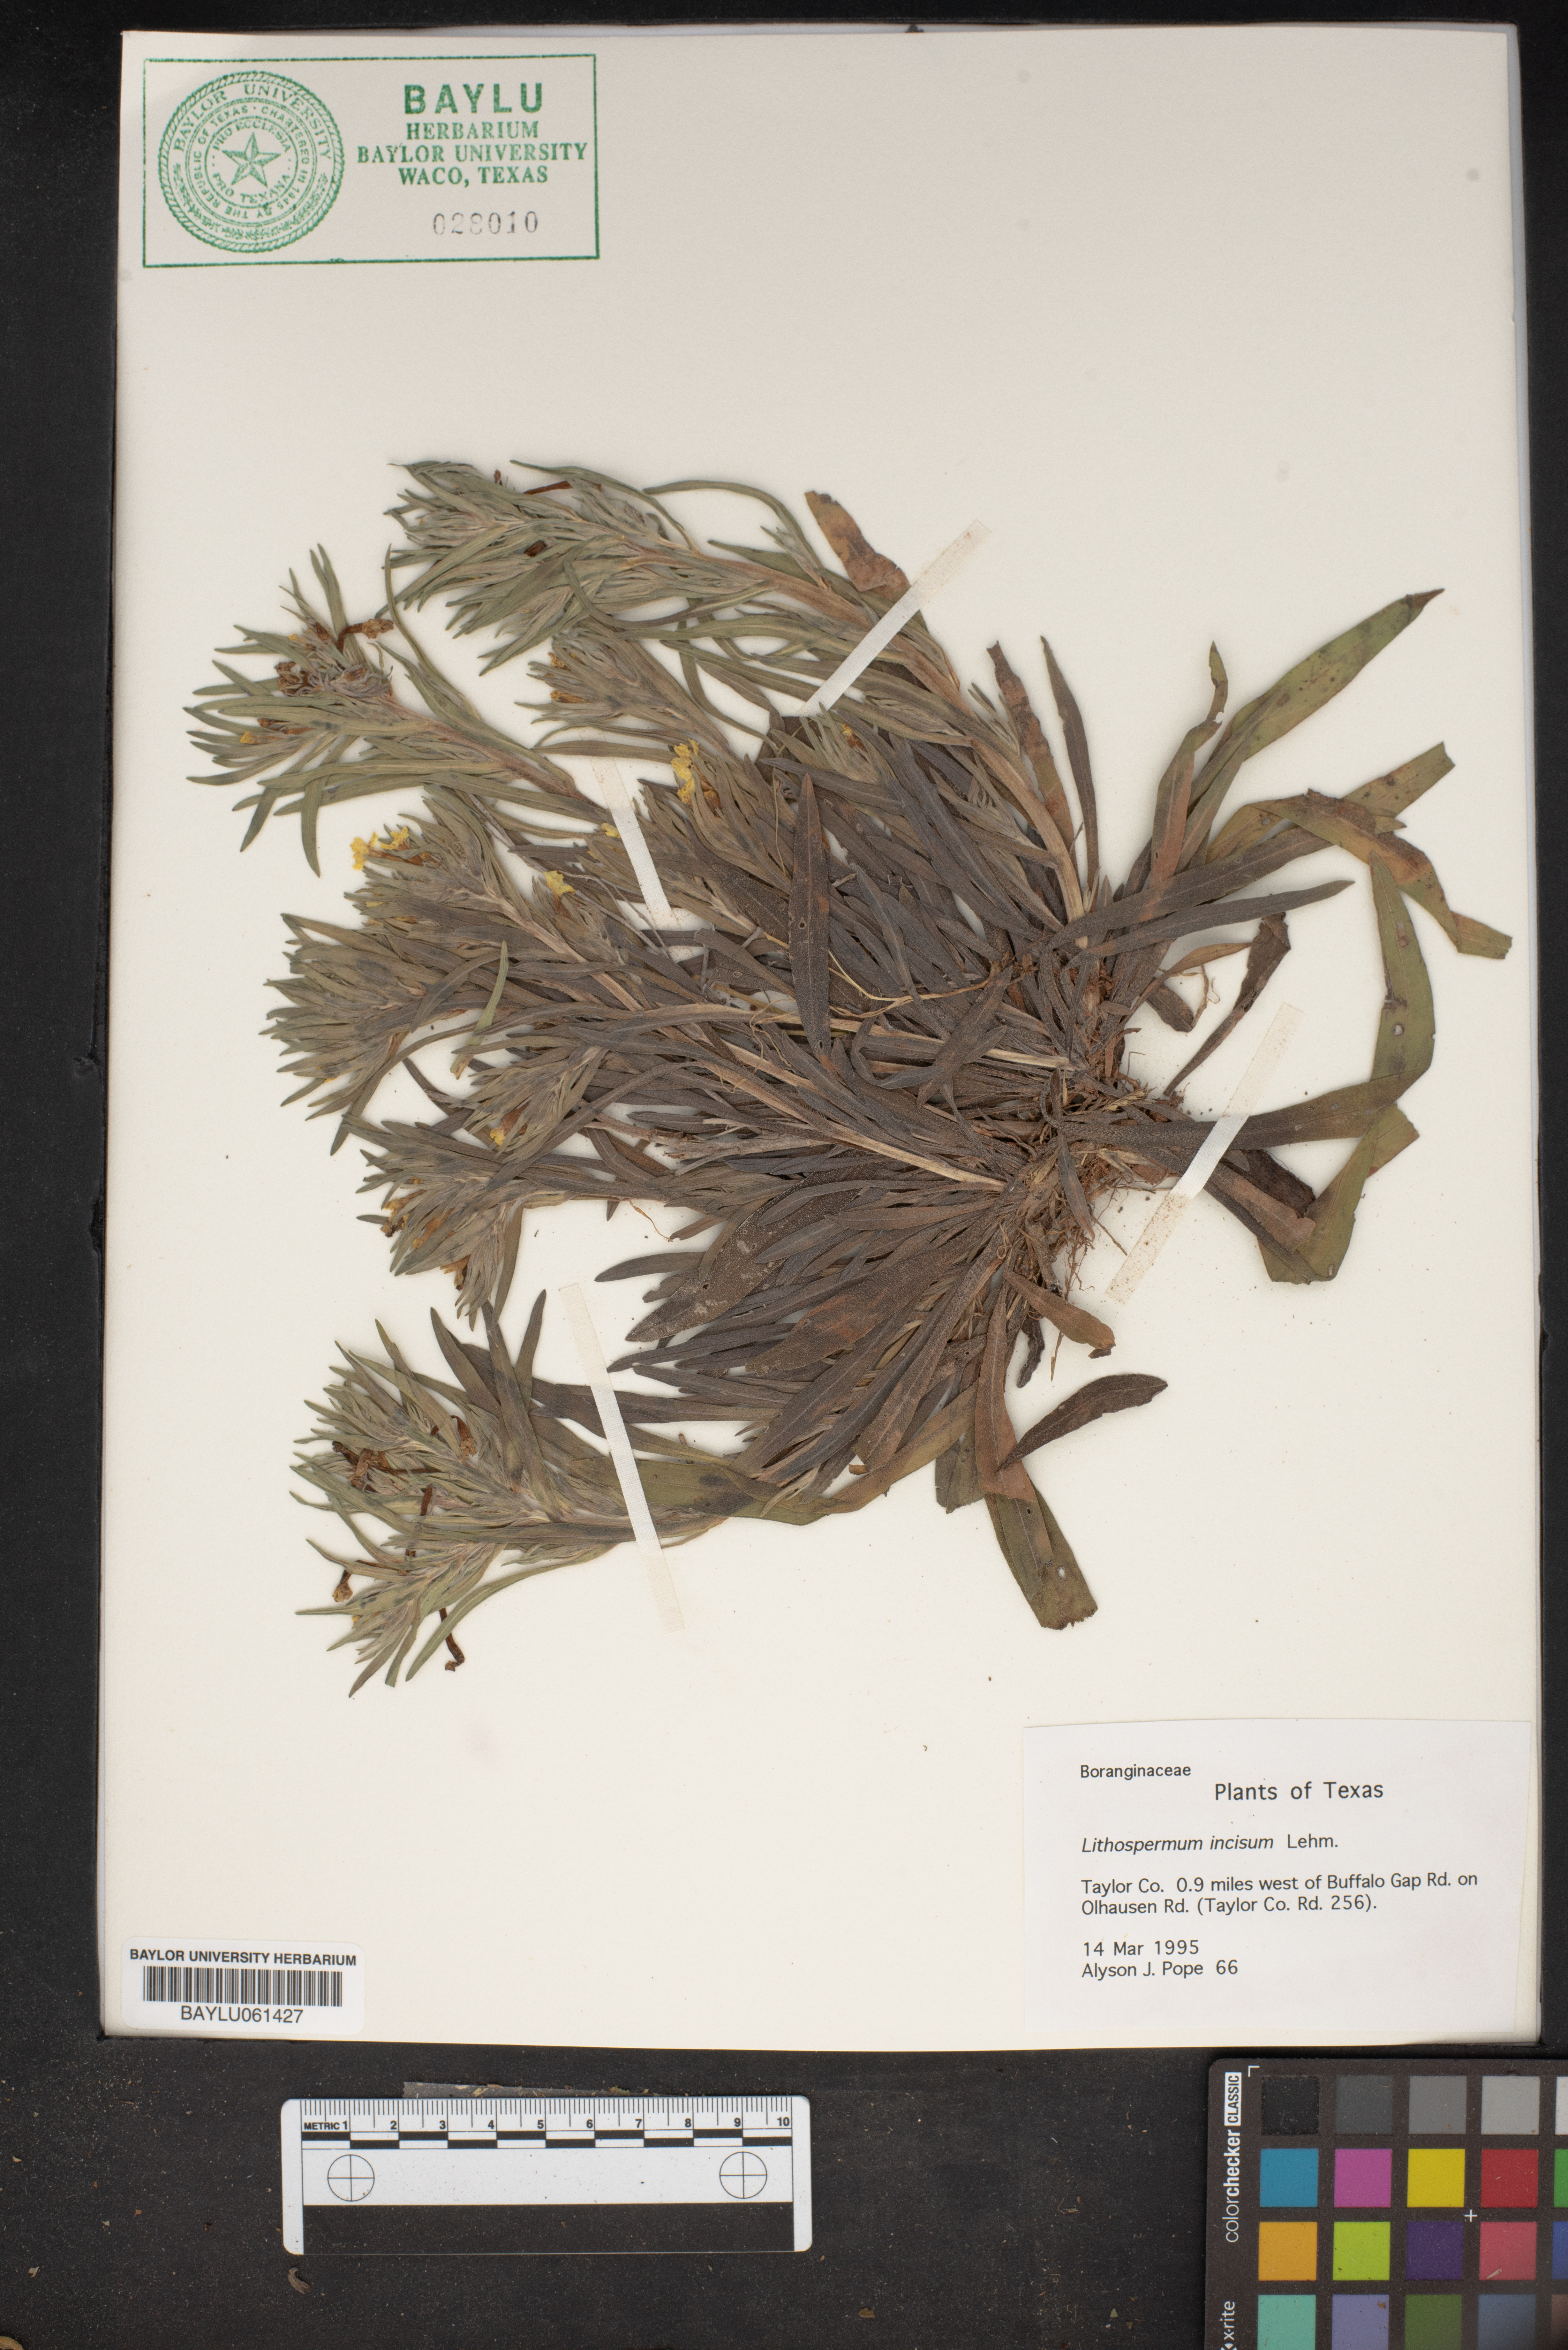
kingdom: Plantae
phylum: Tracheophyta
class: Magnoliopsida
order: Boraginales
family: Boraginaceae
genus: Lithospermum
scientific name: Lithospermum incisum
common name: Fringed gromwell
